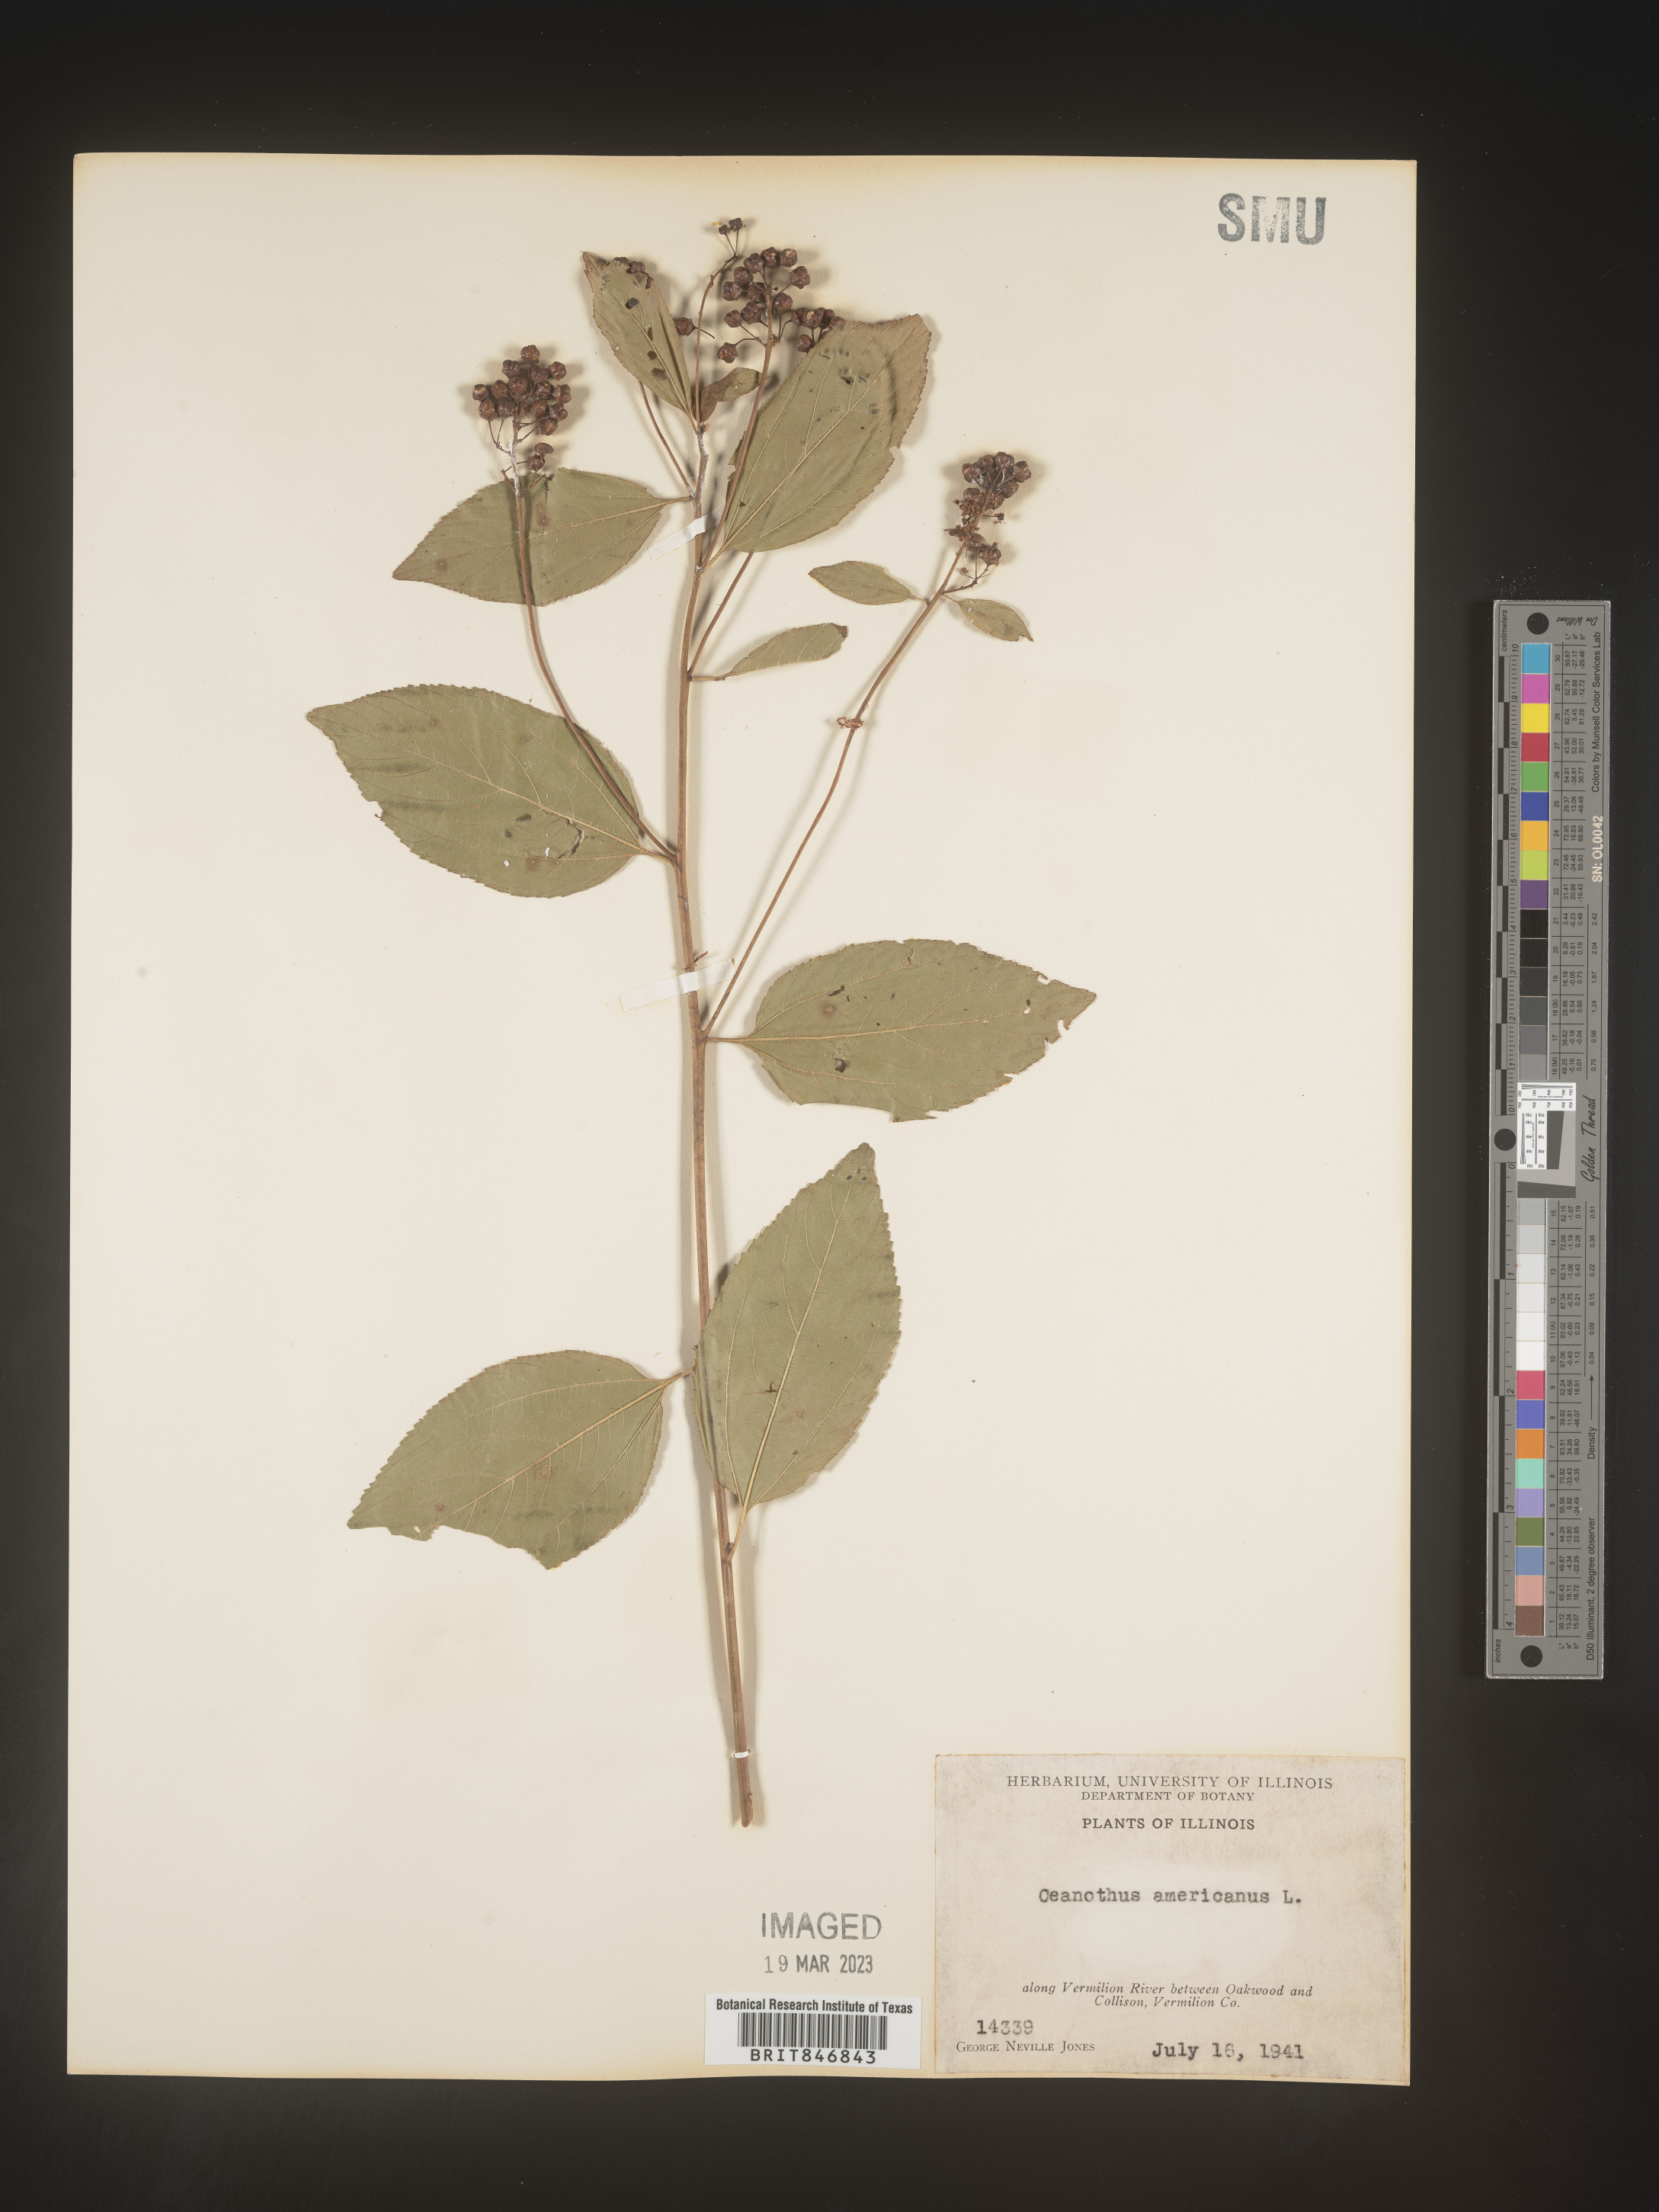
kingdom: Plantae
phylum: Tracheophyta
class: Magnoliopsida
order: Rosales
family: Rhamnaceae
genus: Ceanothus
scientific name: Ceanothus americanus
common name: Redroot
